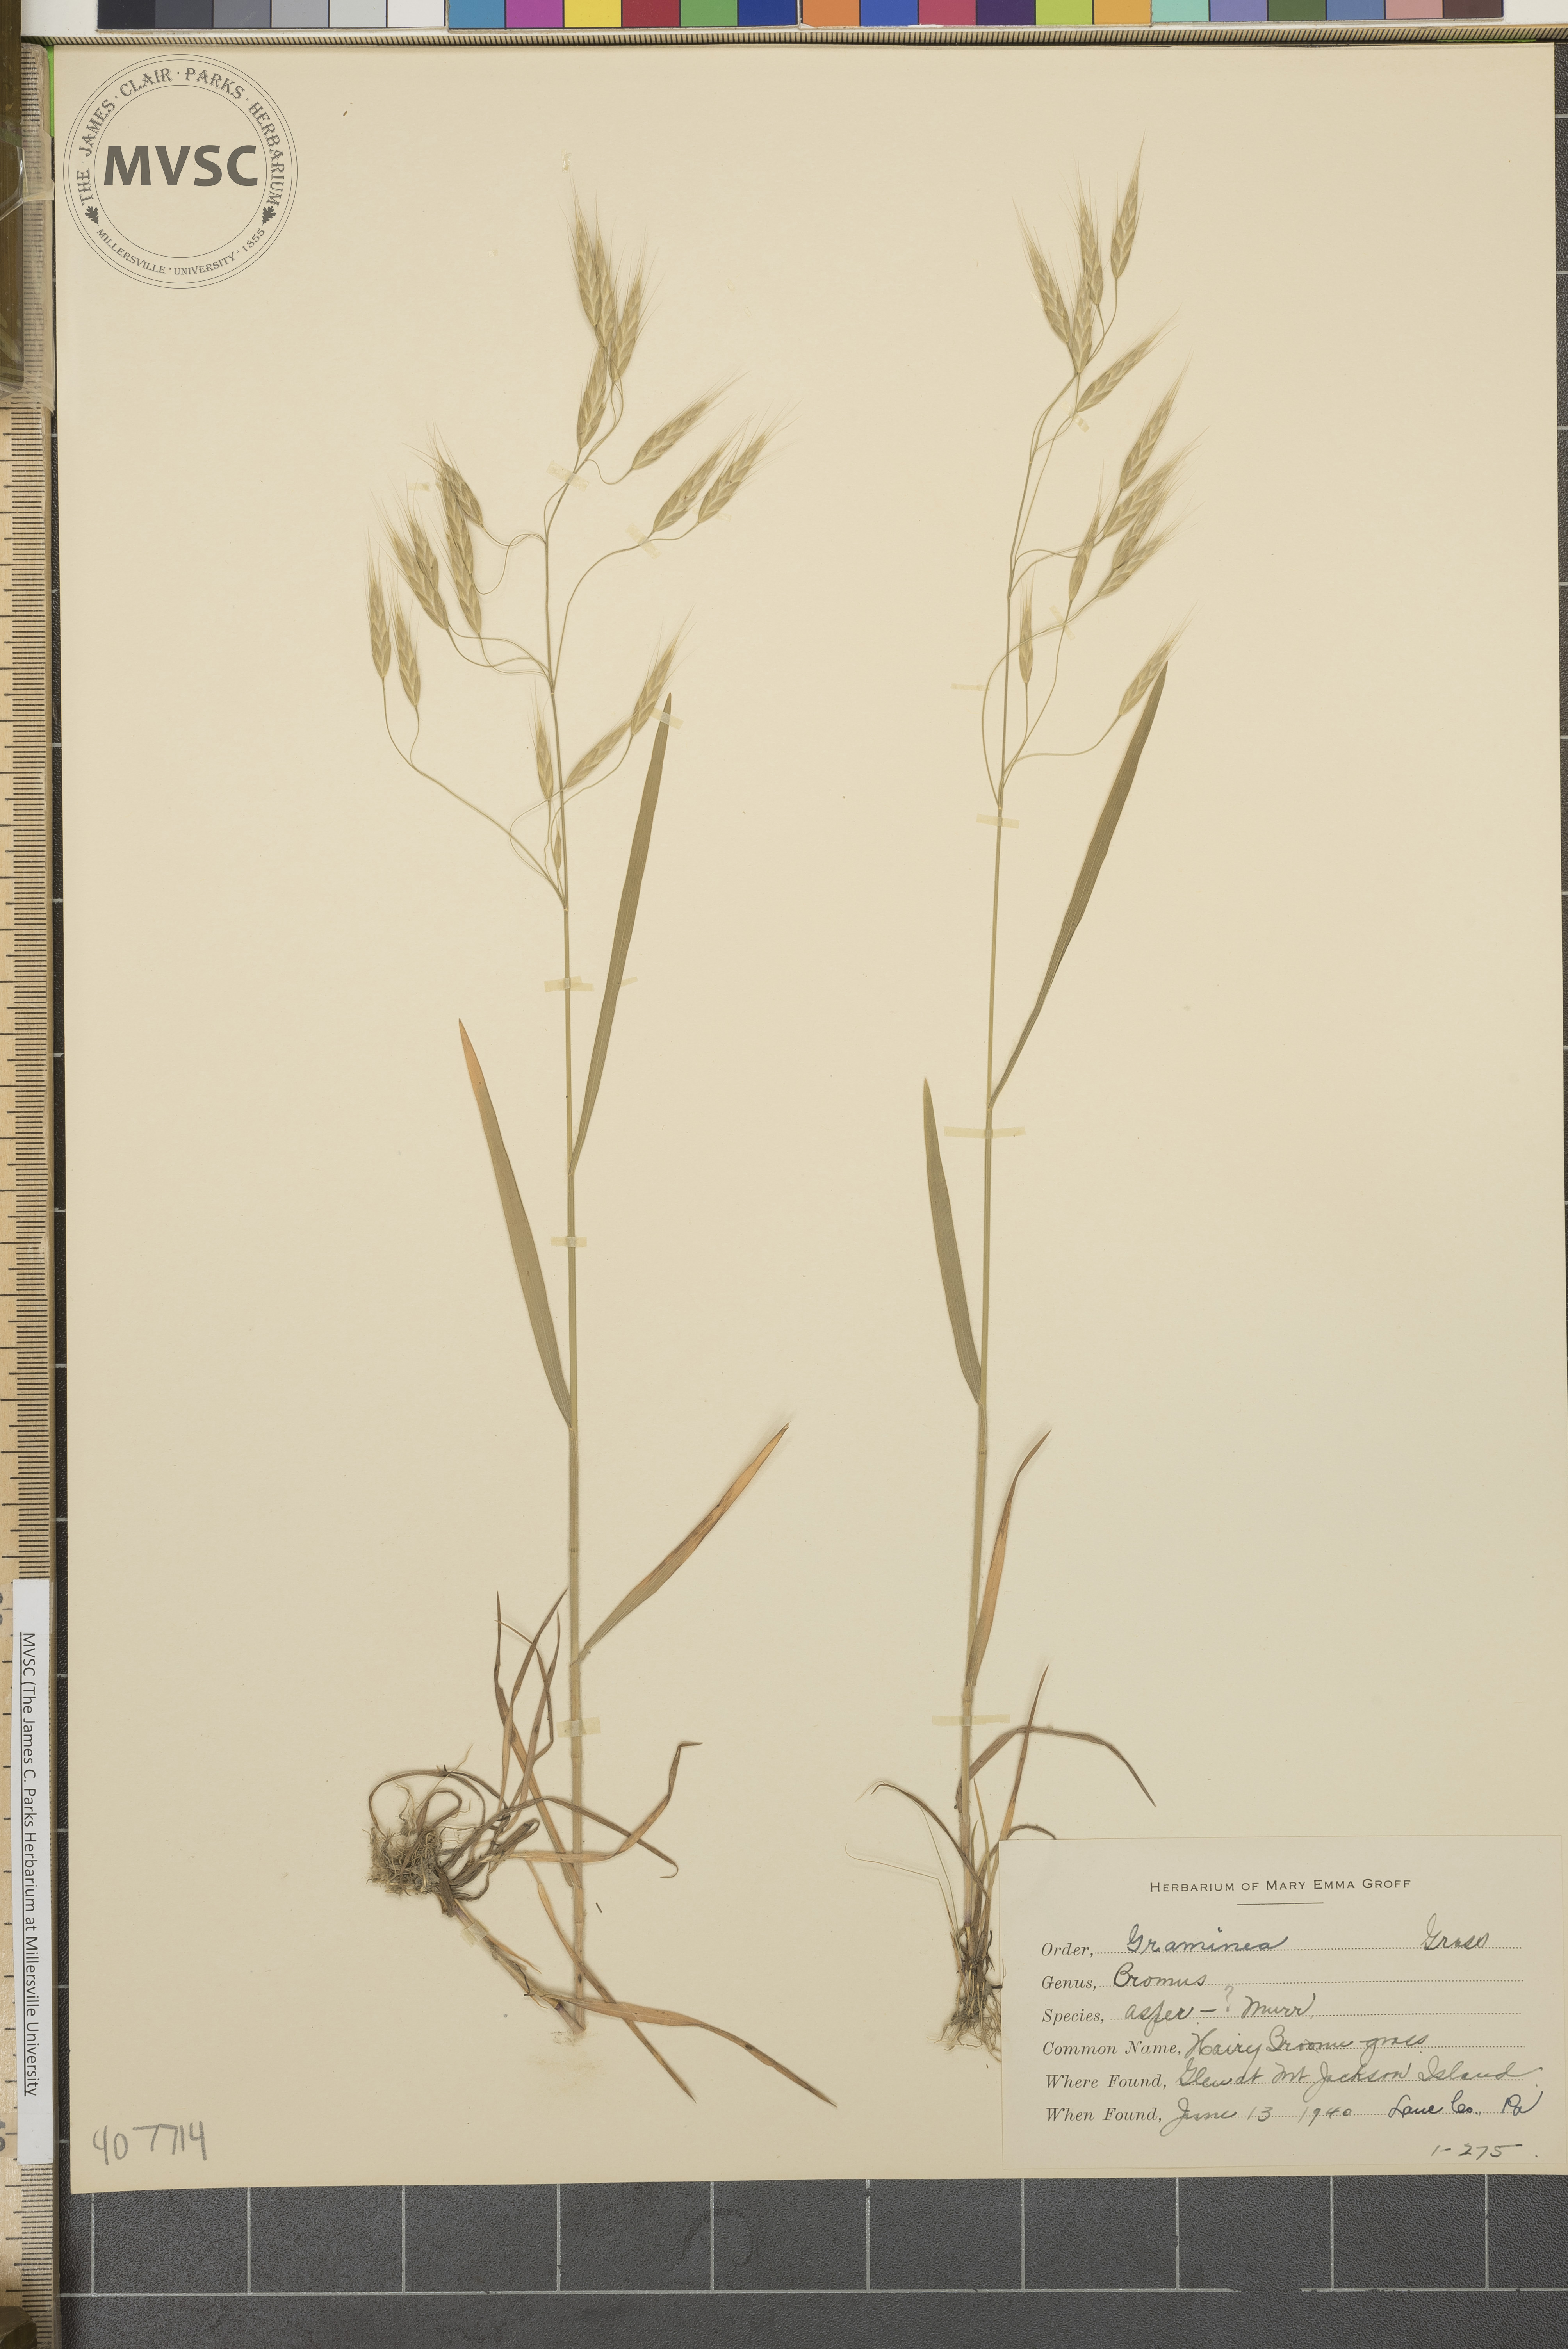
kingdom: Plantae
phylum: Tracheophyta
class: Liliopsida
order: Poales
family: Poaceae
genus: Bromus
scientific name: Bromus japonicus
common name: Japanese brome
